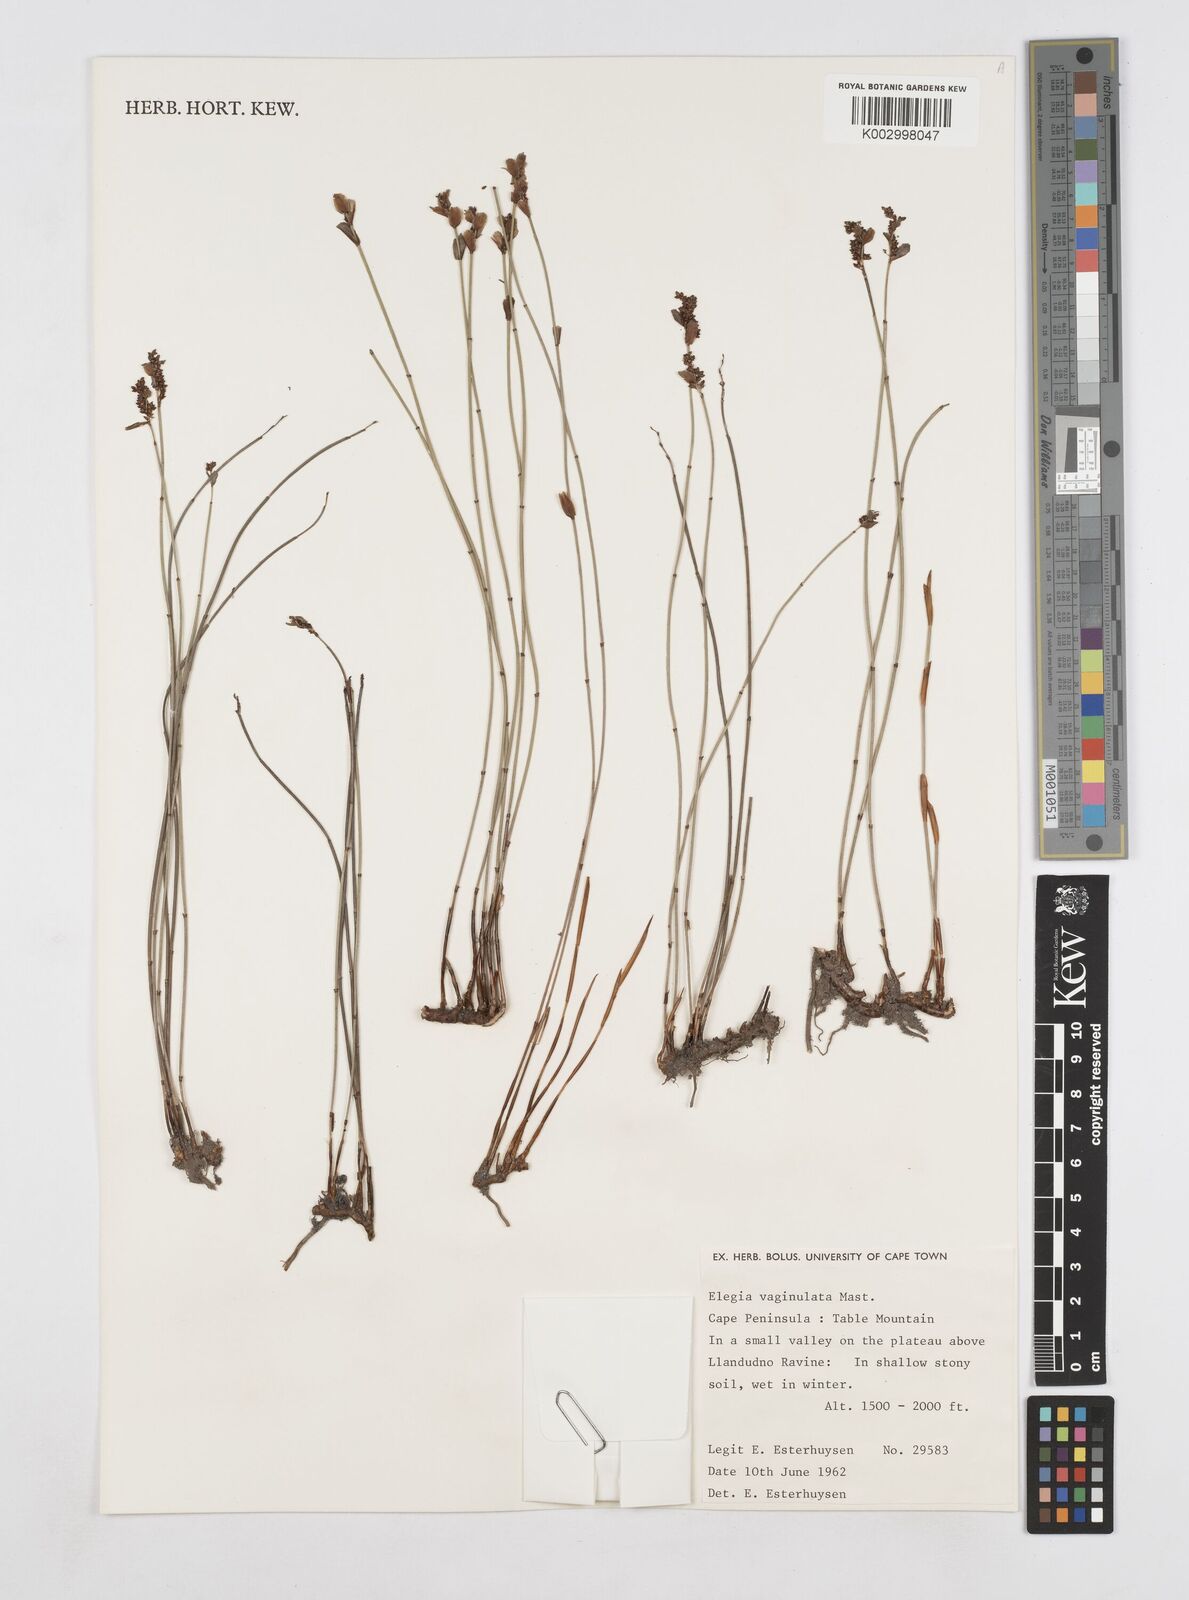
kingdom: Plantae
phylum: Tracheophyta
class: Liliopsida
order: Poales
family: Restionaceae
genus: Elegia
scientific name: Elegia vaginulata
